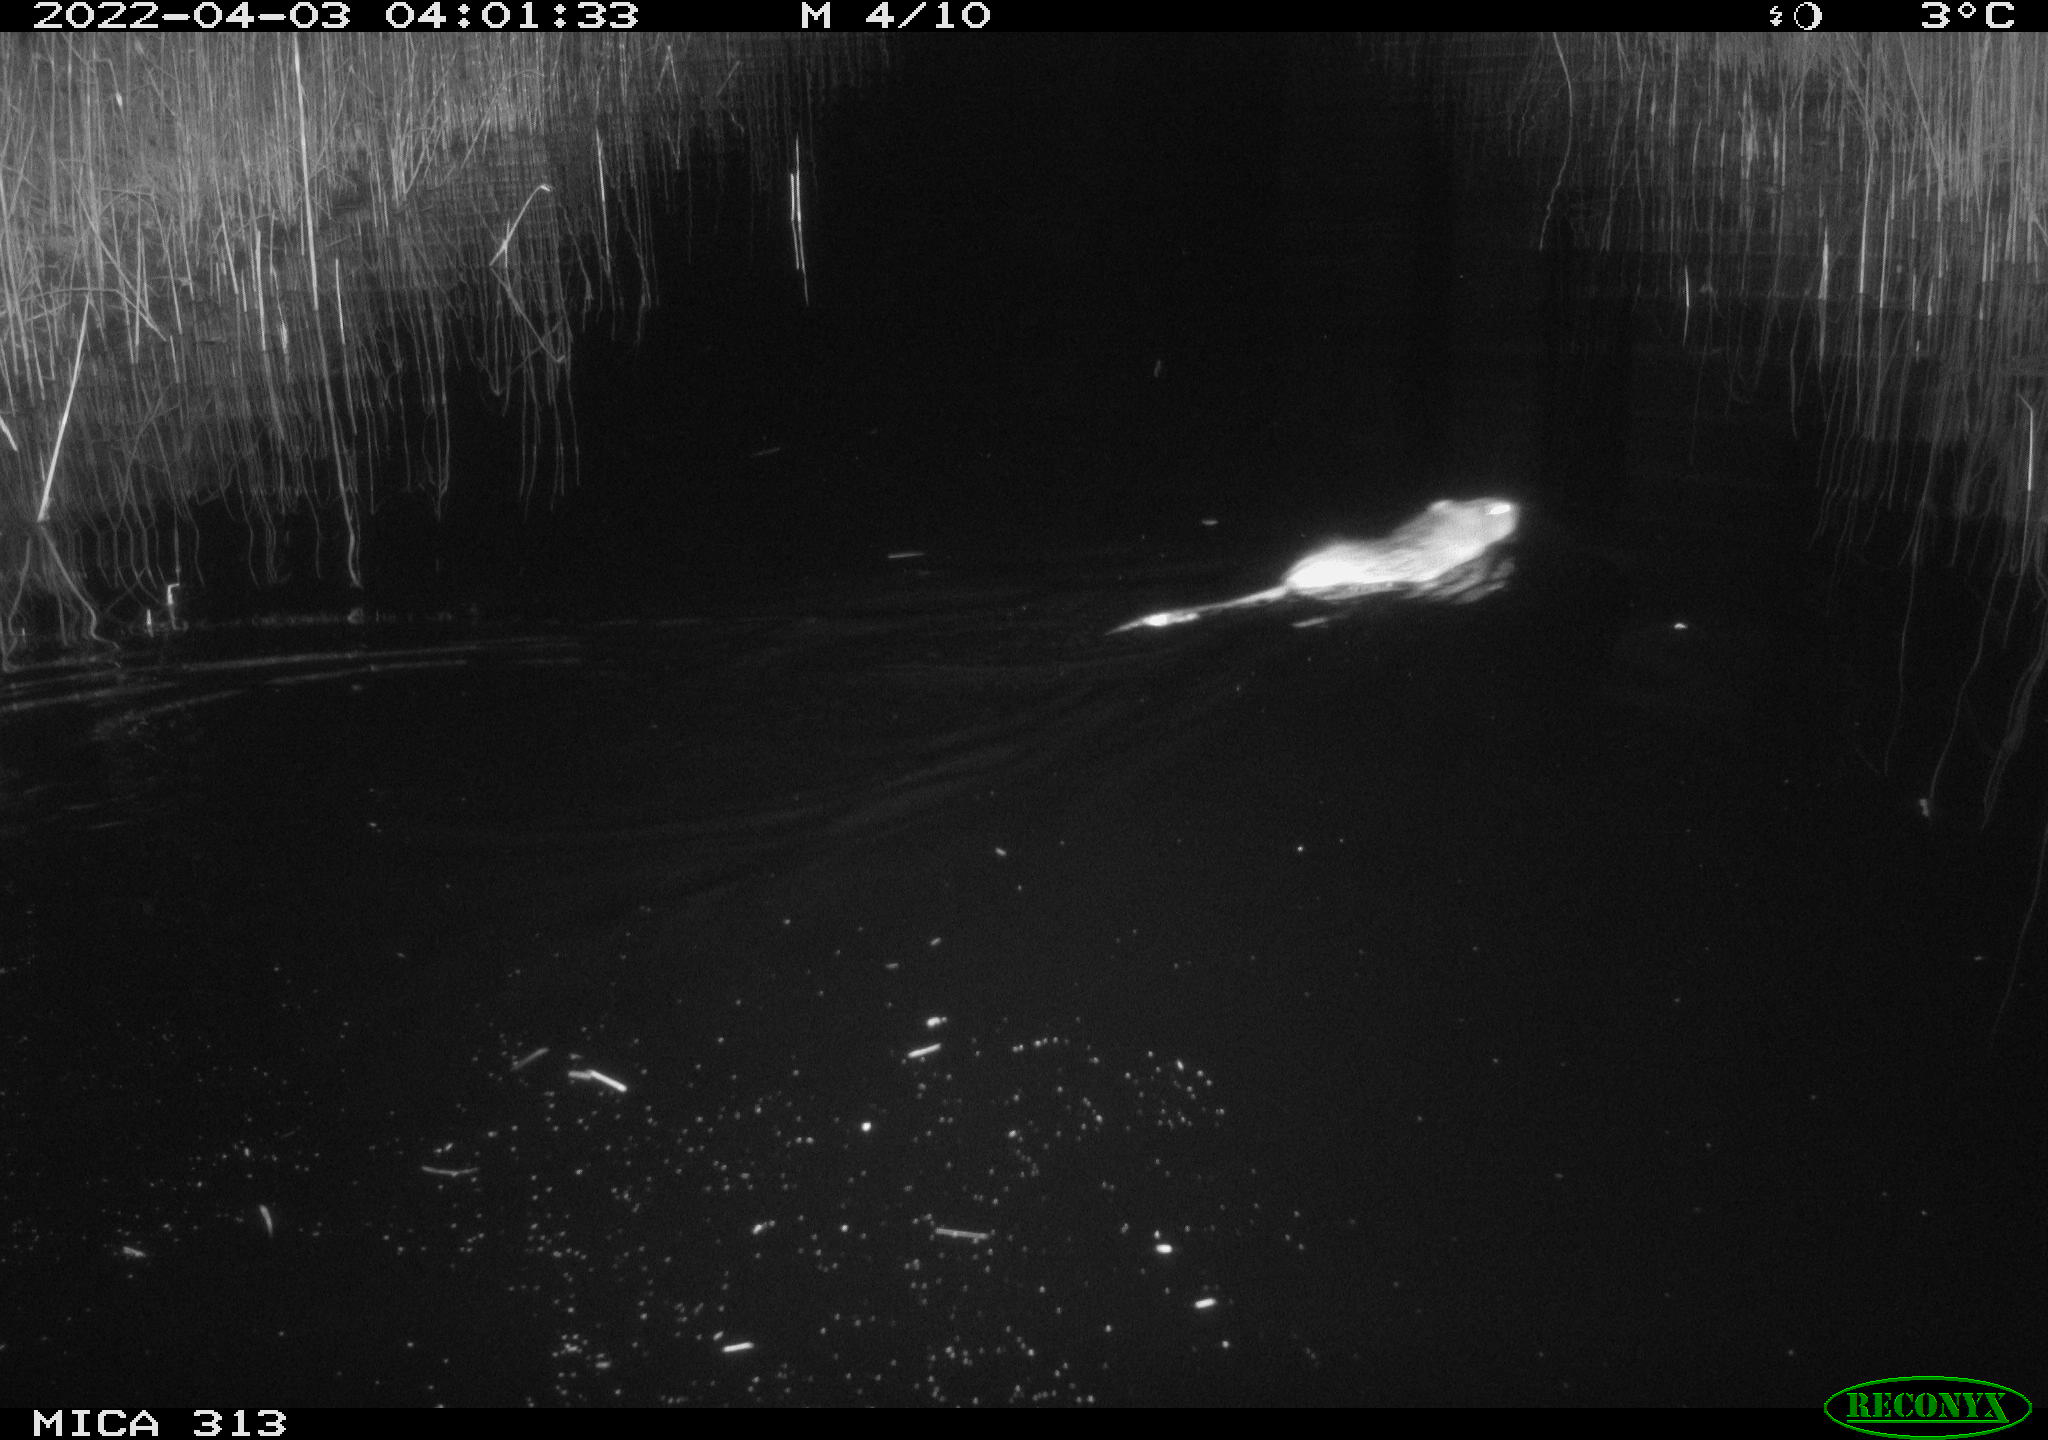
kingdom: Animalia
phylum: Chordata
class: Mammalia
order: Rodentia
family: Cricetidae
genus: Ondatra
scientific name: Ondatra zibethicus
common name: Muskrat
